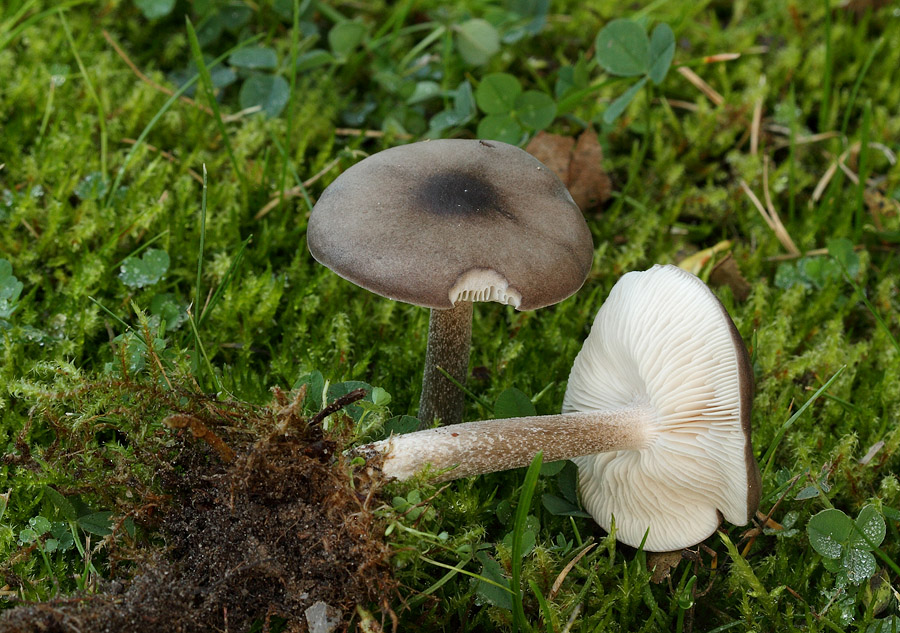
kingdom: Fungi
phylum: Basidiomycota
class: Agaricomycetes
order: Agaricales
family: Tricholomataceae
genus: Melanoleuca
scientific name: Melanoleuca polioleuca
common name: almindelig munkehat
